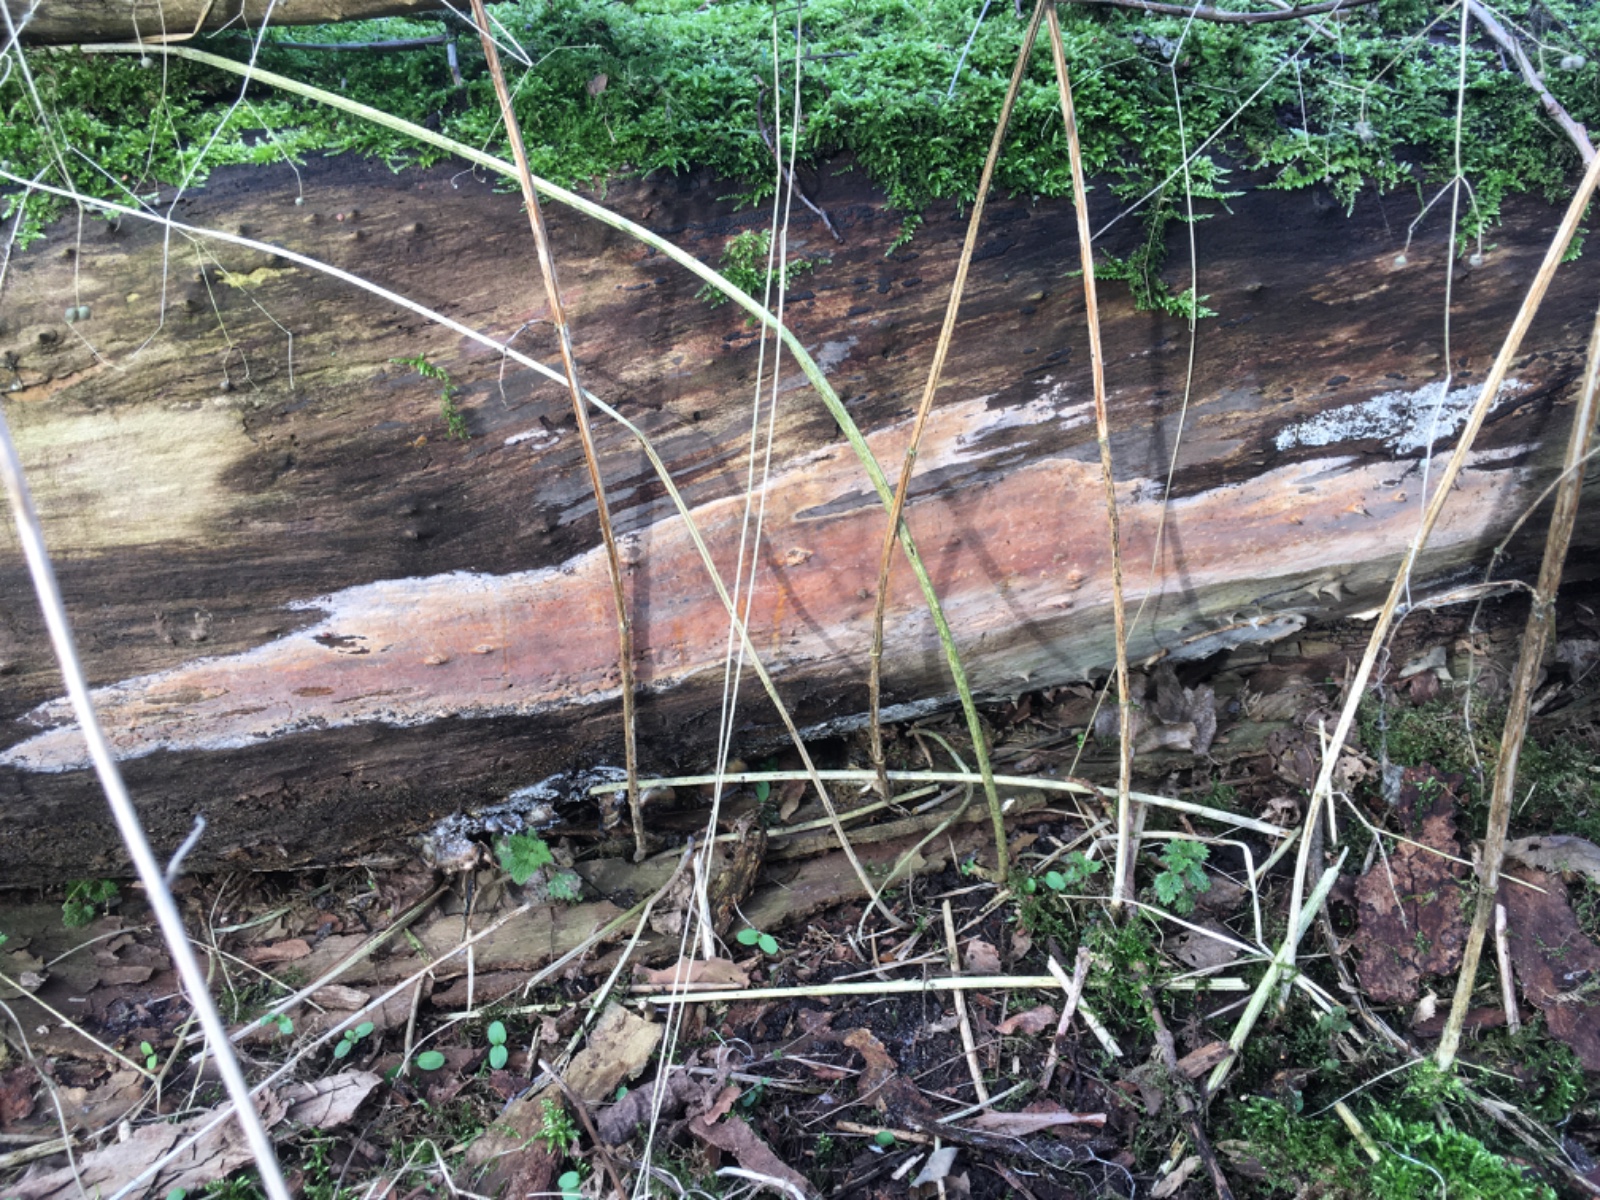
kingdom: Fungi
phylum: Basidiomycota
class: Agaricomycetes
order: Corticiales
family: Corticiaceae
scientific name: Corticiaceae
